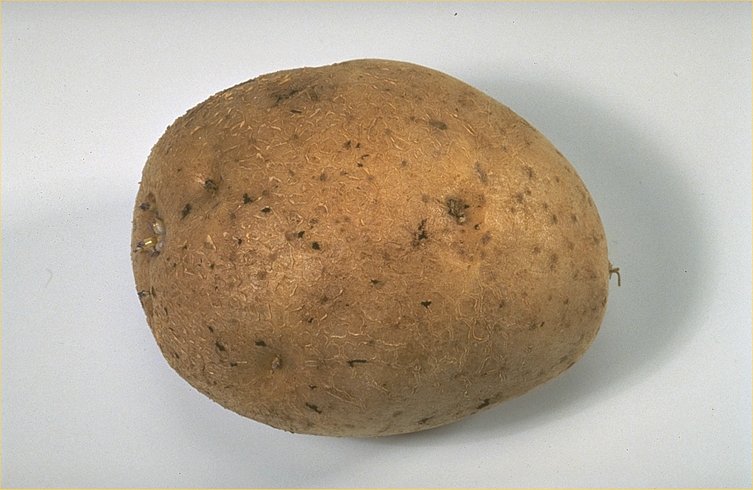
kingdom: Plantae
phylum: Tracheophyta
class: Magnoliopsida
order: Solanales
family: Solanaceae
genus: Solanum
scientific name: Solanum tuberosum
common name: Potato
